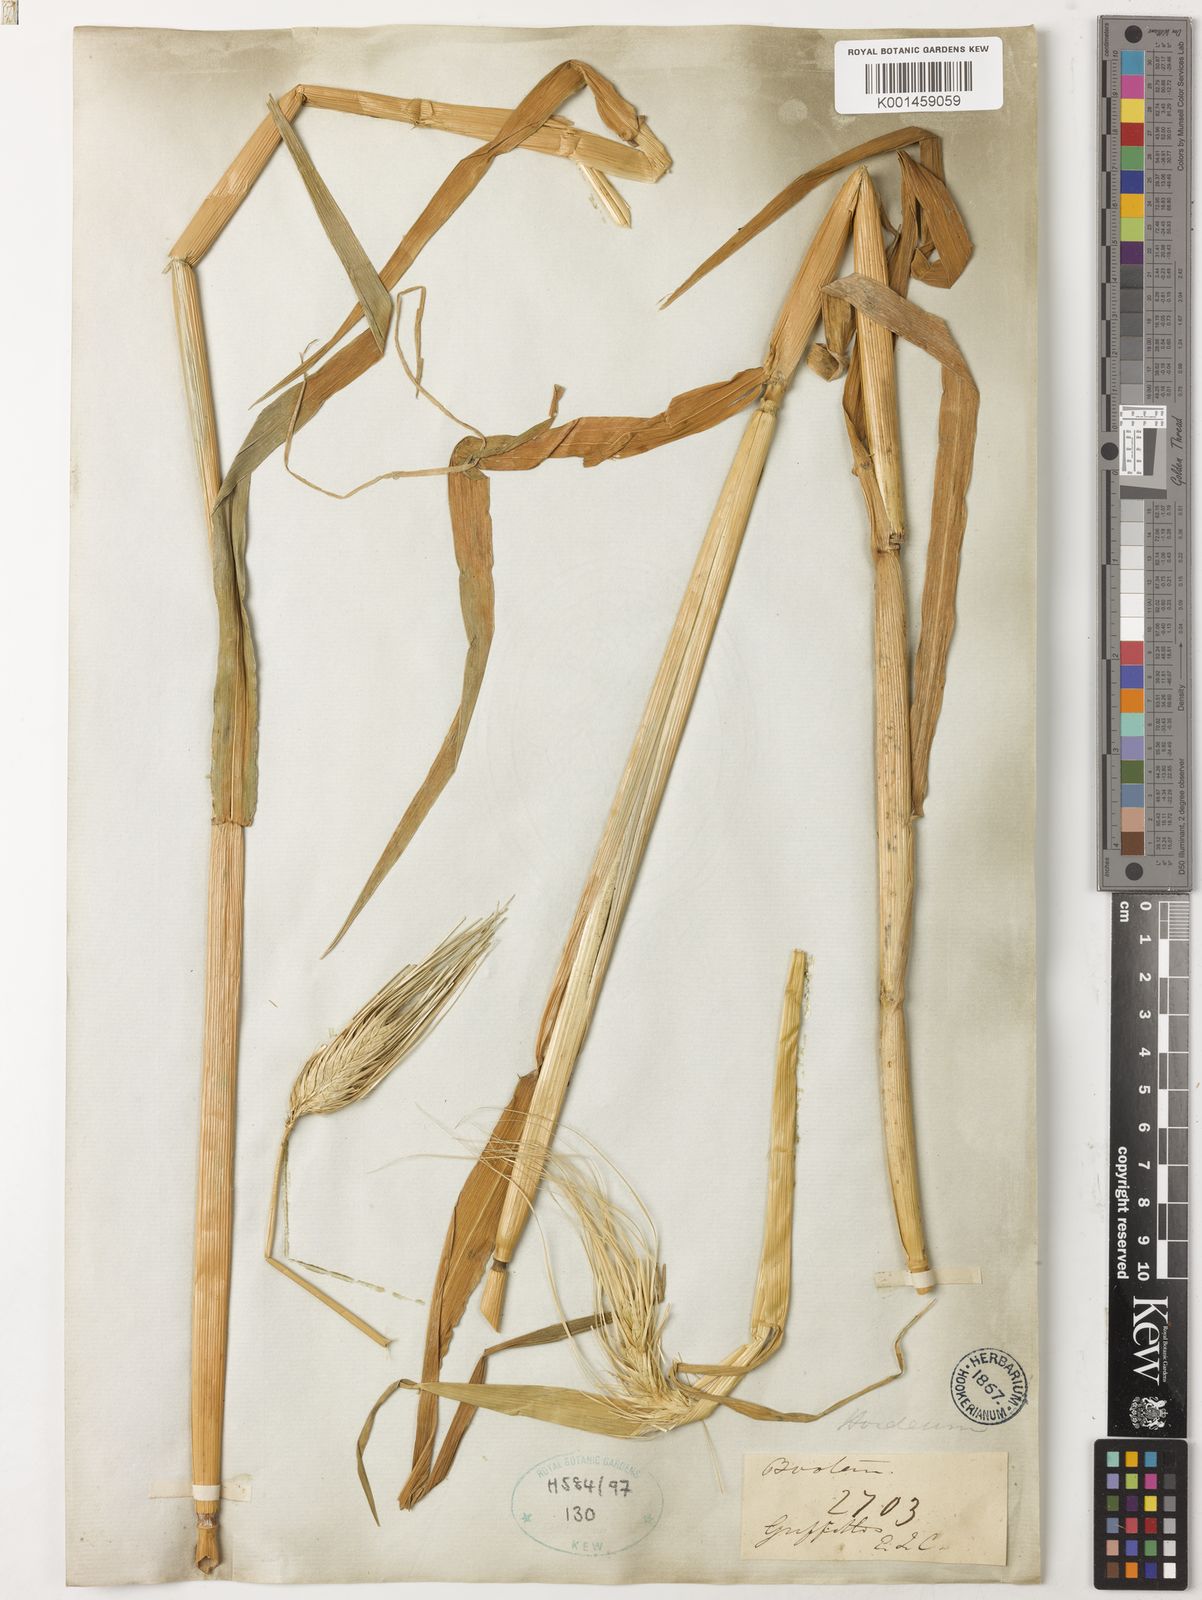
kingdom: Plantae
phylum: Tracheophyta
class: Liliopsida
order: Poales
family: Poaceae
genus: Hordeum
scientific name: Hordeum vulgare
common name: Common barley
